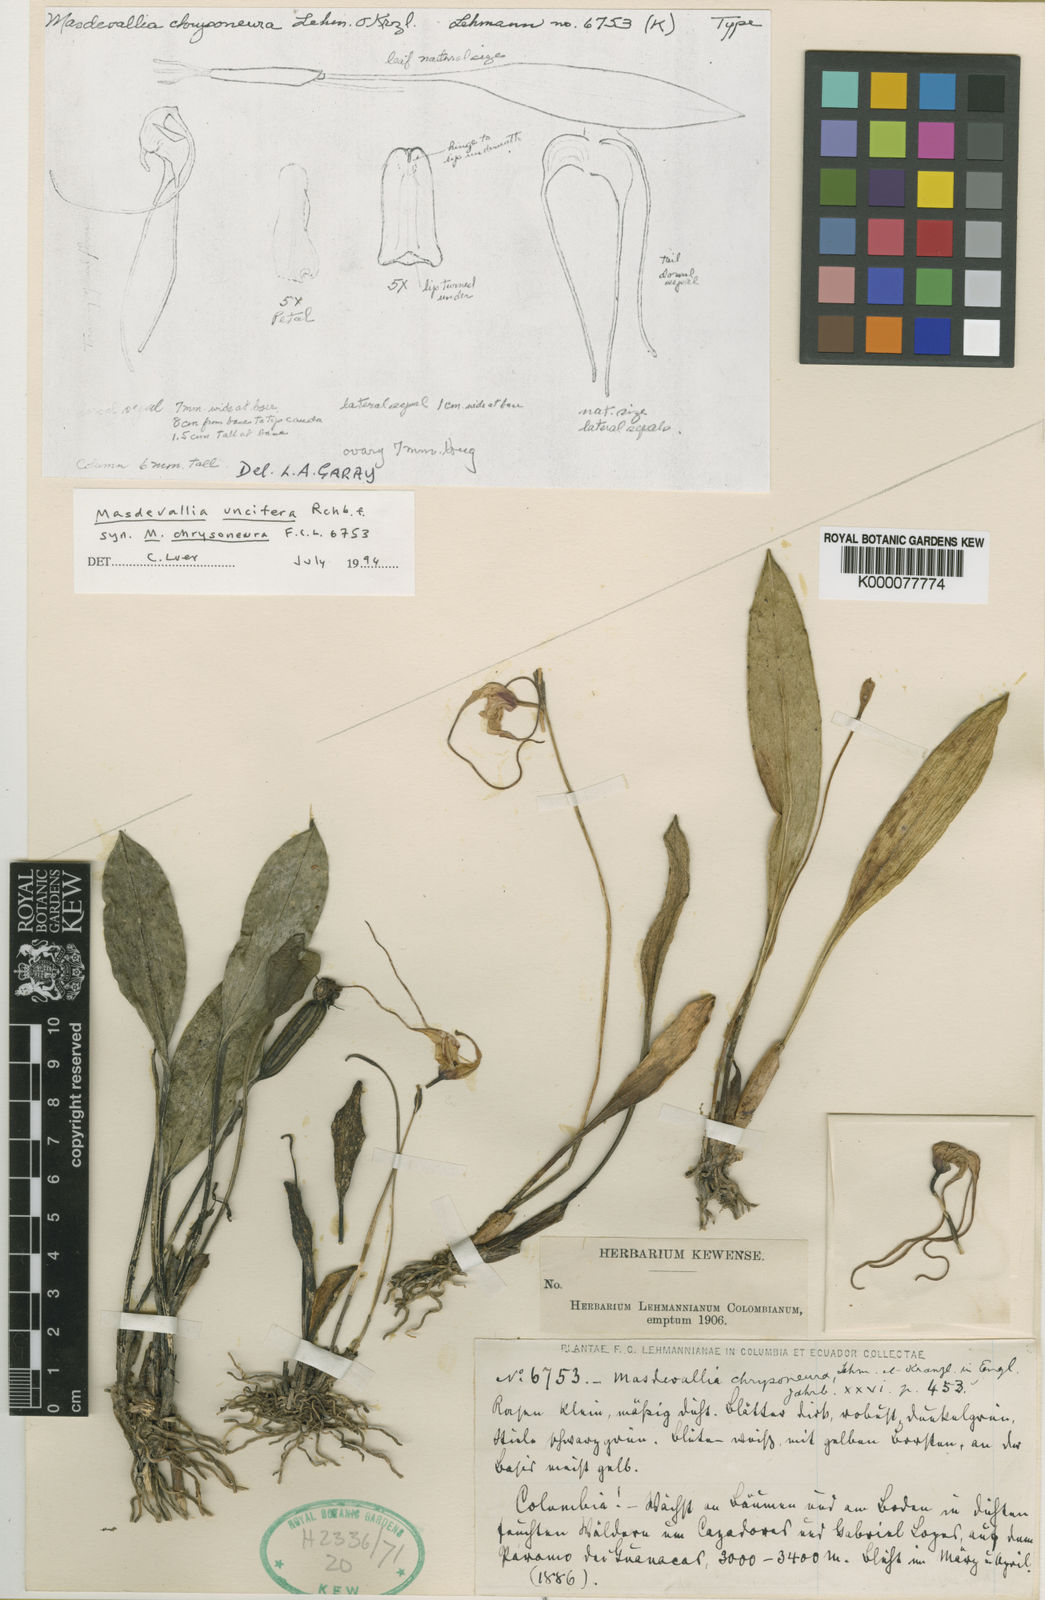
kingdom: Plantae
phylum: Tracheophyta
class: Liliopsida
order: Asparagales
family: Orchidaceae
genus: Masdevallia
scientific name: Masdevallia uncifera
